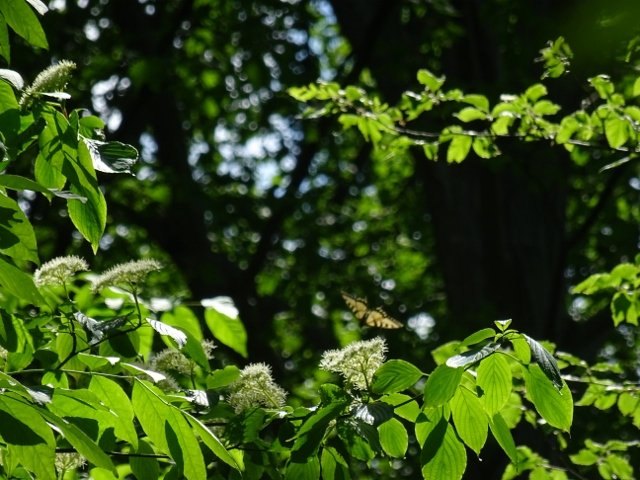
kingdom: Animalia
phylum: Arthropoda
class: Insecta
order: Lepidoptera
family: Papilionidae
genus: Pterourus
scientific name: Pterourus glaucus
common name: Eastern Tiger Swallowtail
